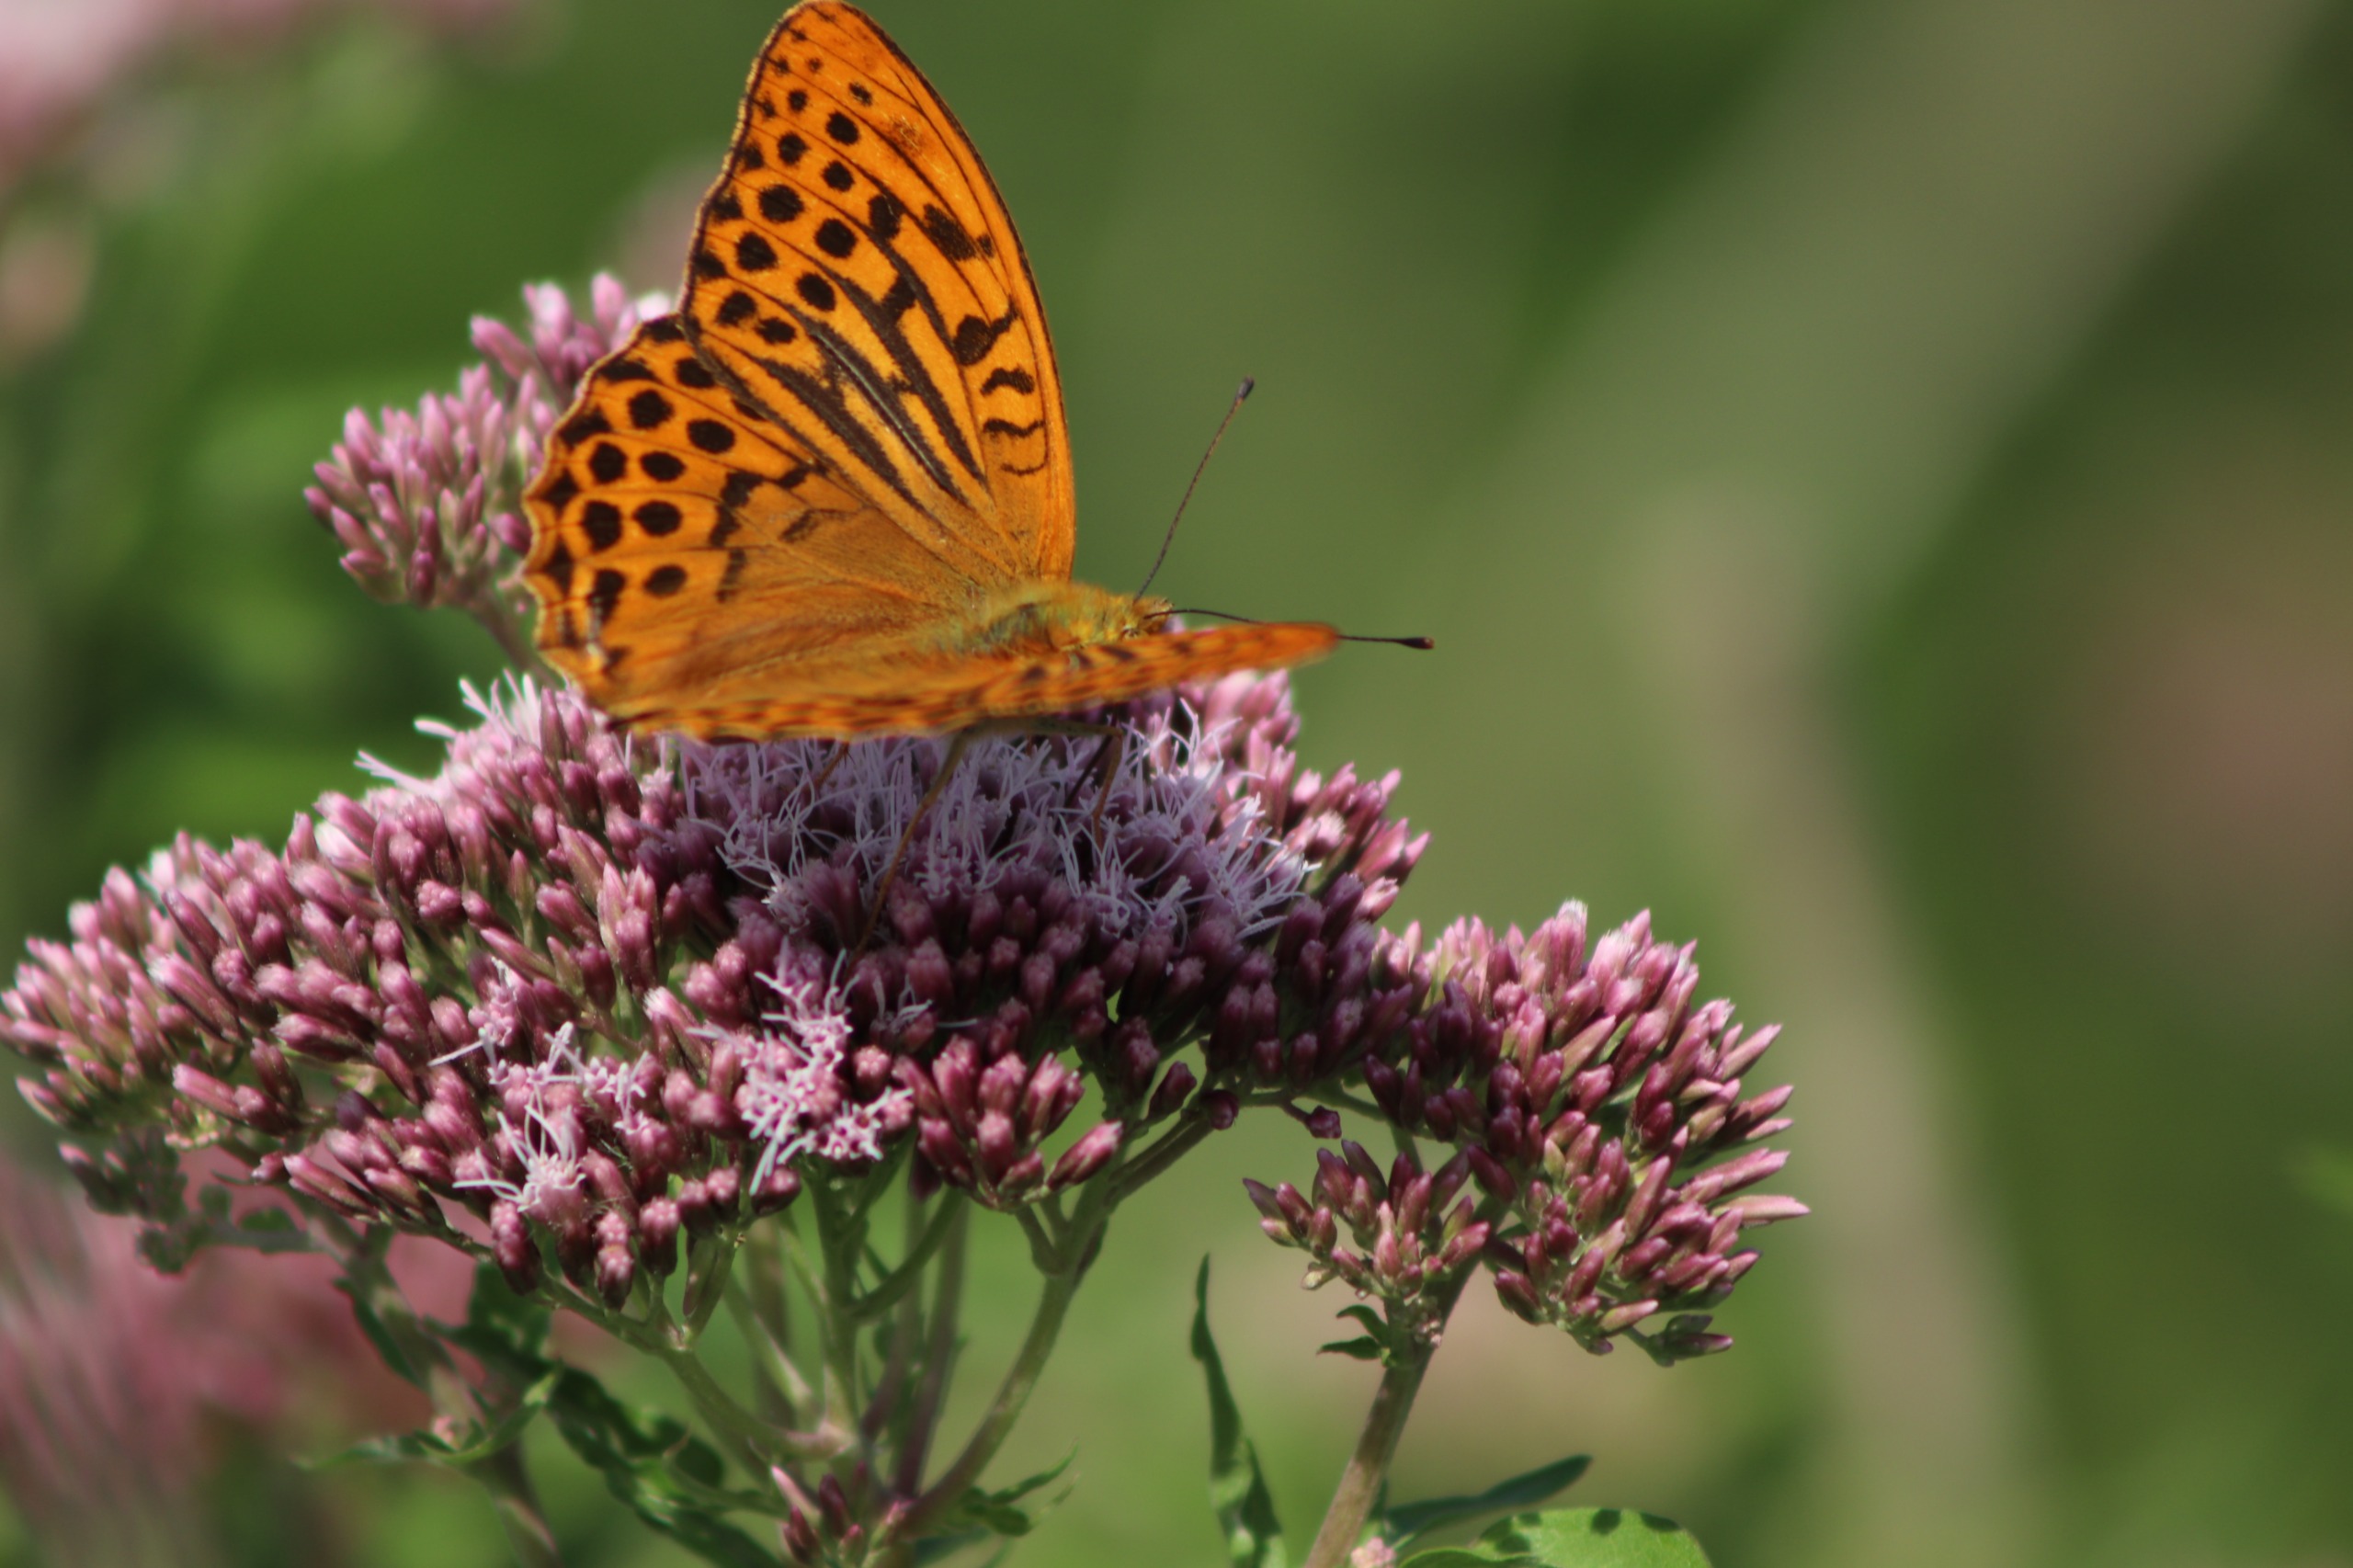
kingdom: Animalia
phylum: Arthropoda
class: Insecta
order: Lepidoptera
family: Nymphalidae
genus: Argynnis
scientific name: Argynnis paphia
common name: Kejserkåbe
